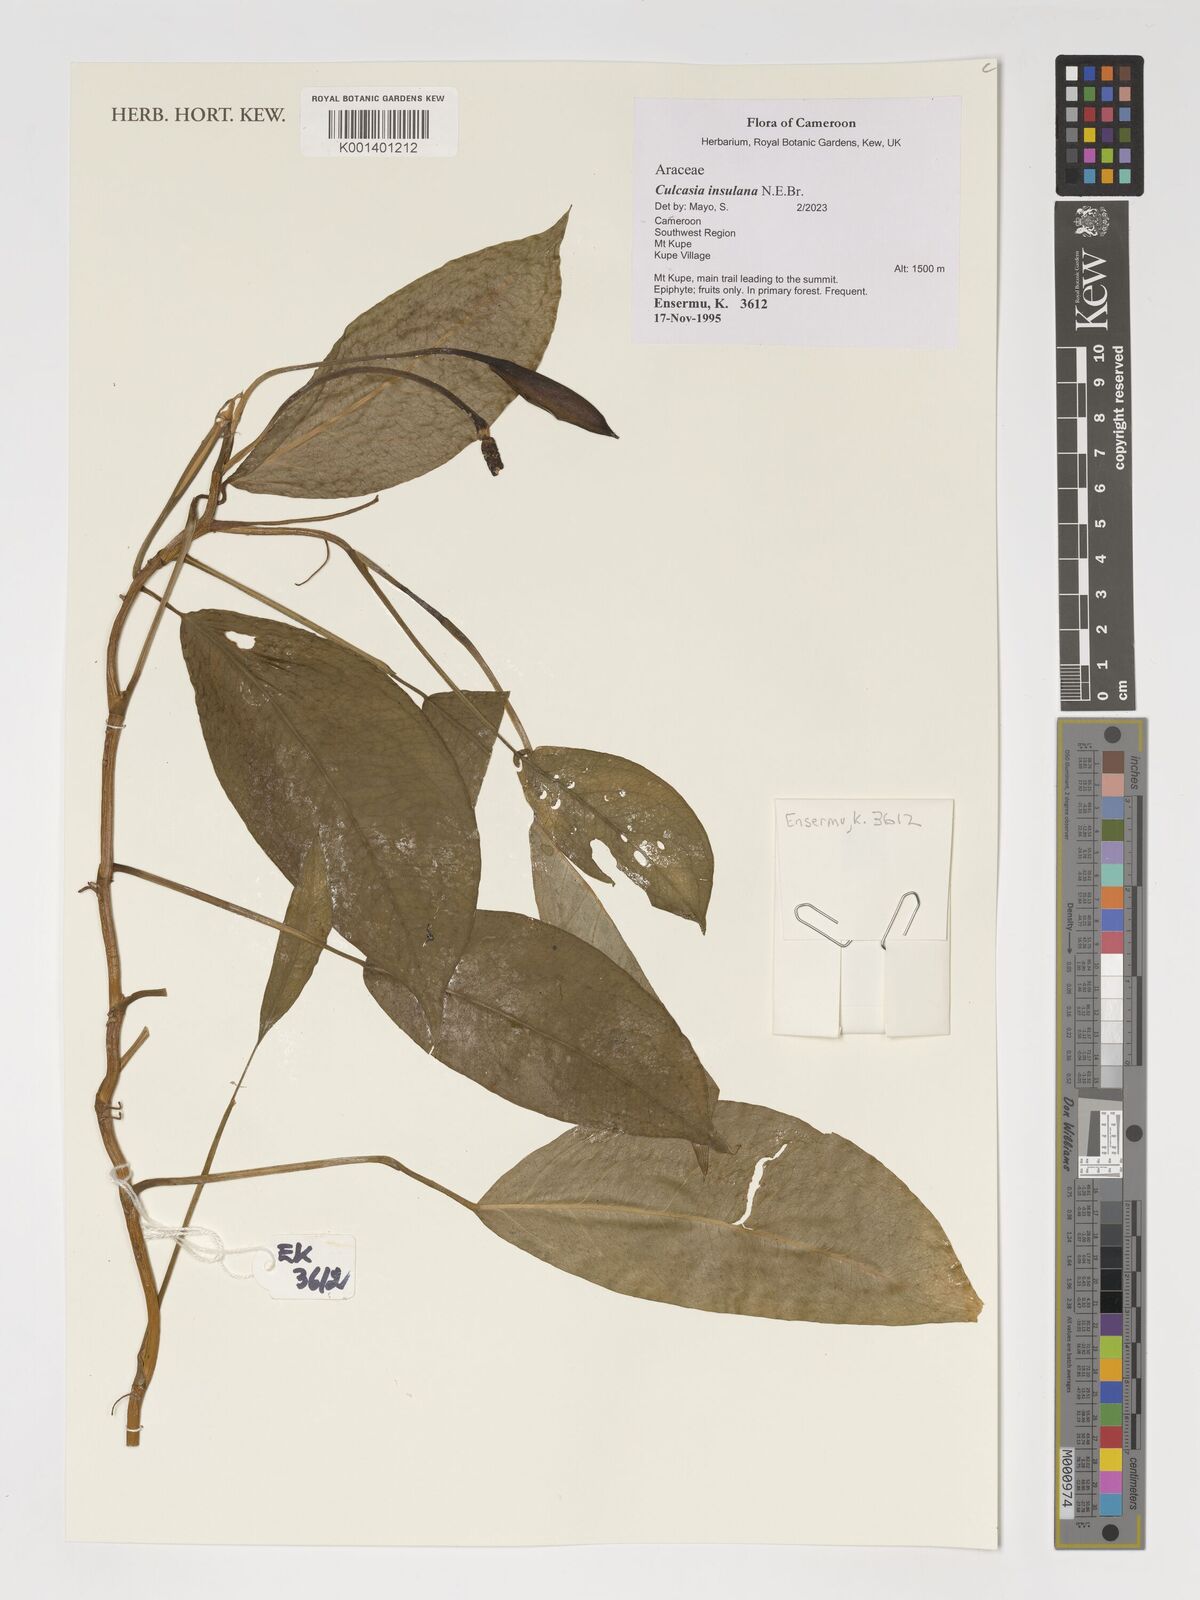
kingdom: Plantae
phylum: Tracheophyta
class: Liliopsida
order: Alismatales
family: Araceae
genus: Culcasia
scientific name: Culcasia insulana
